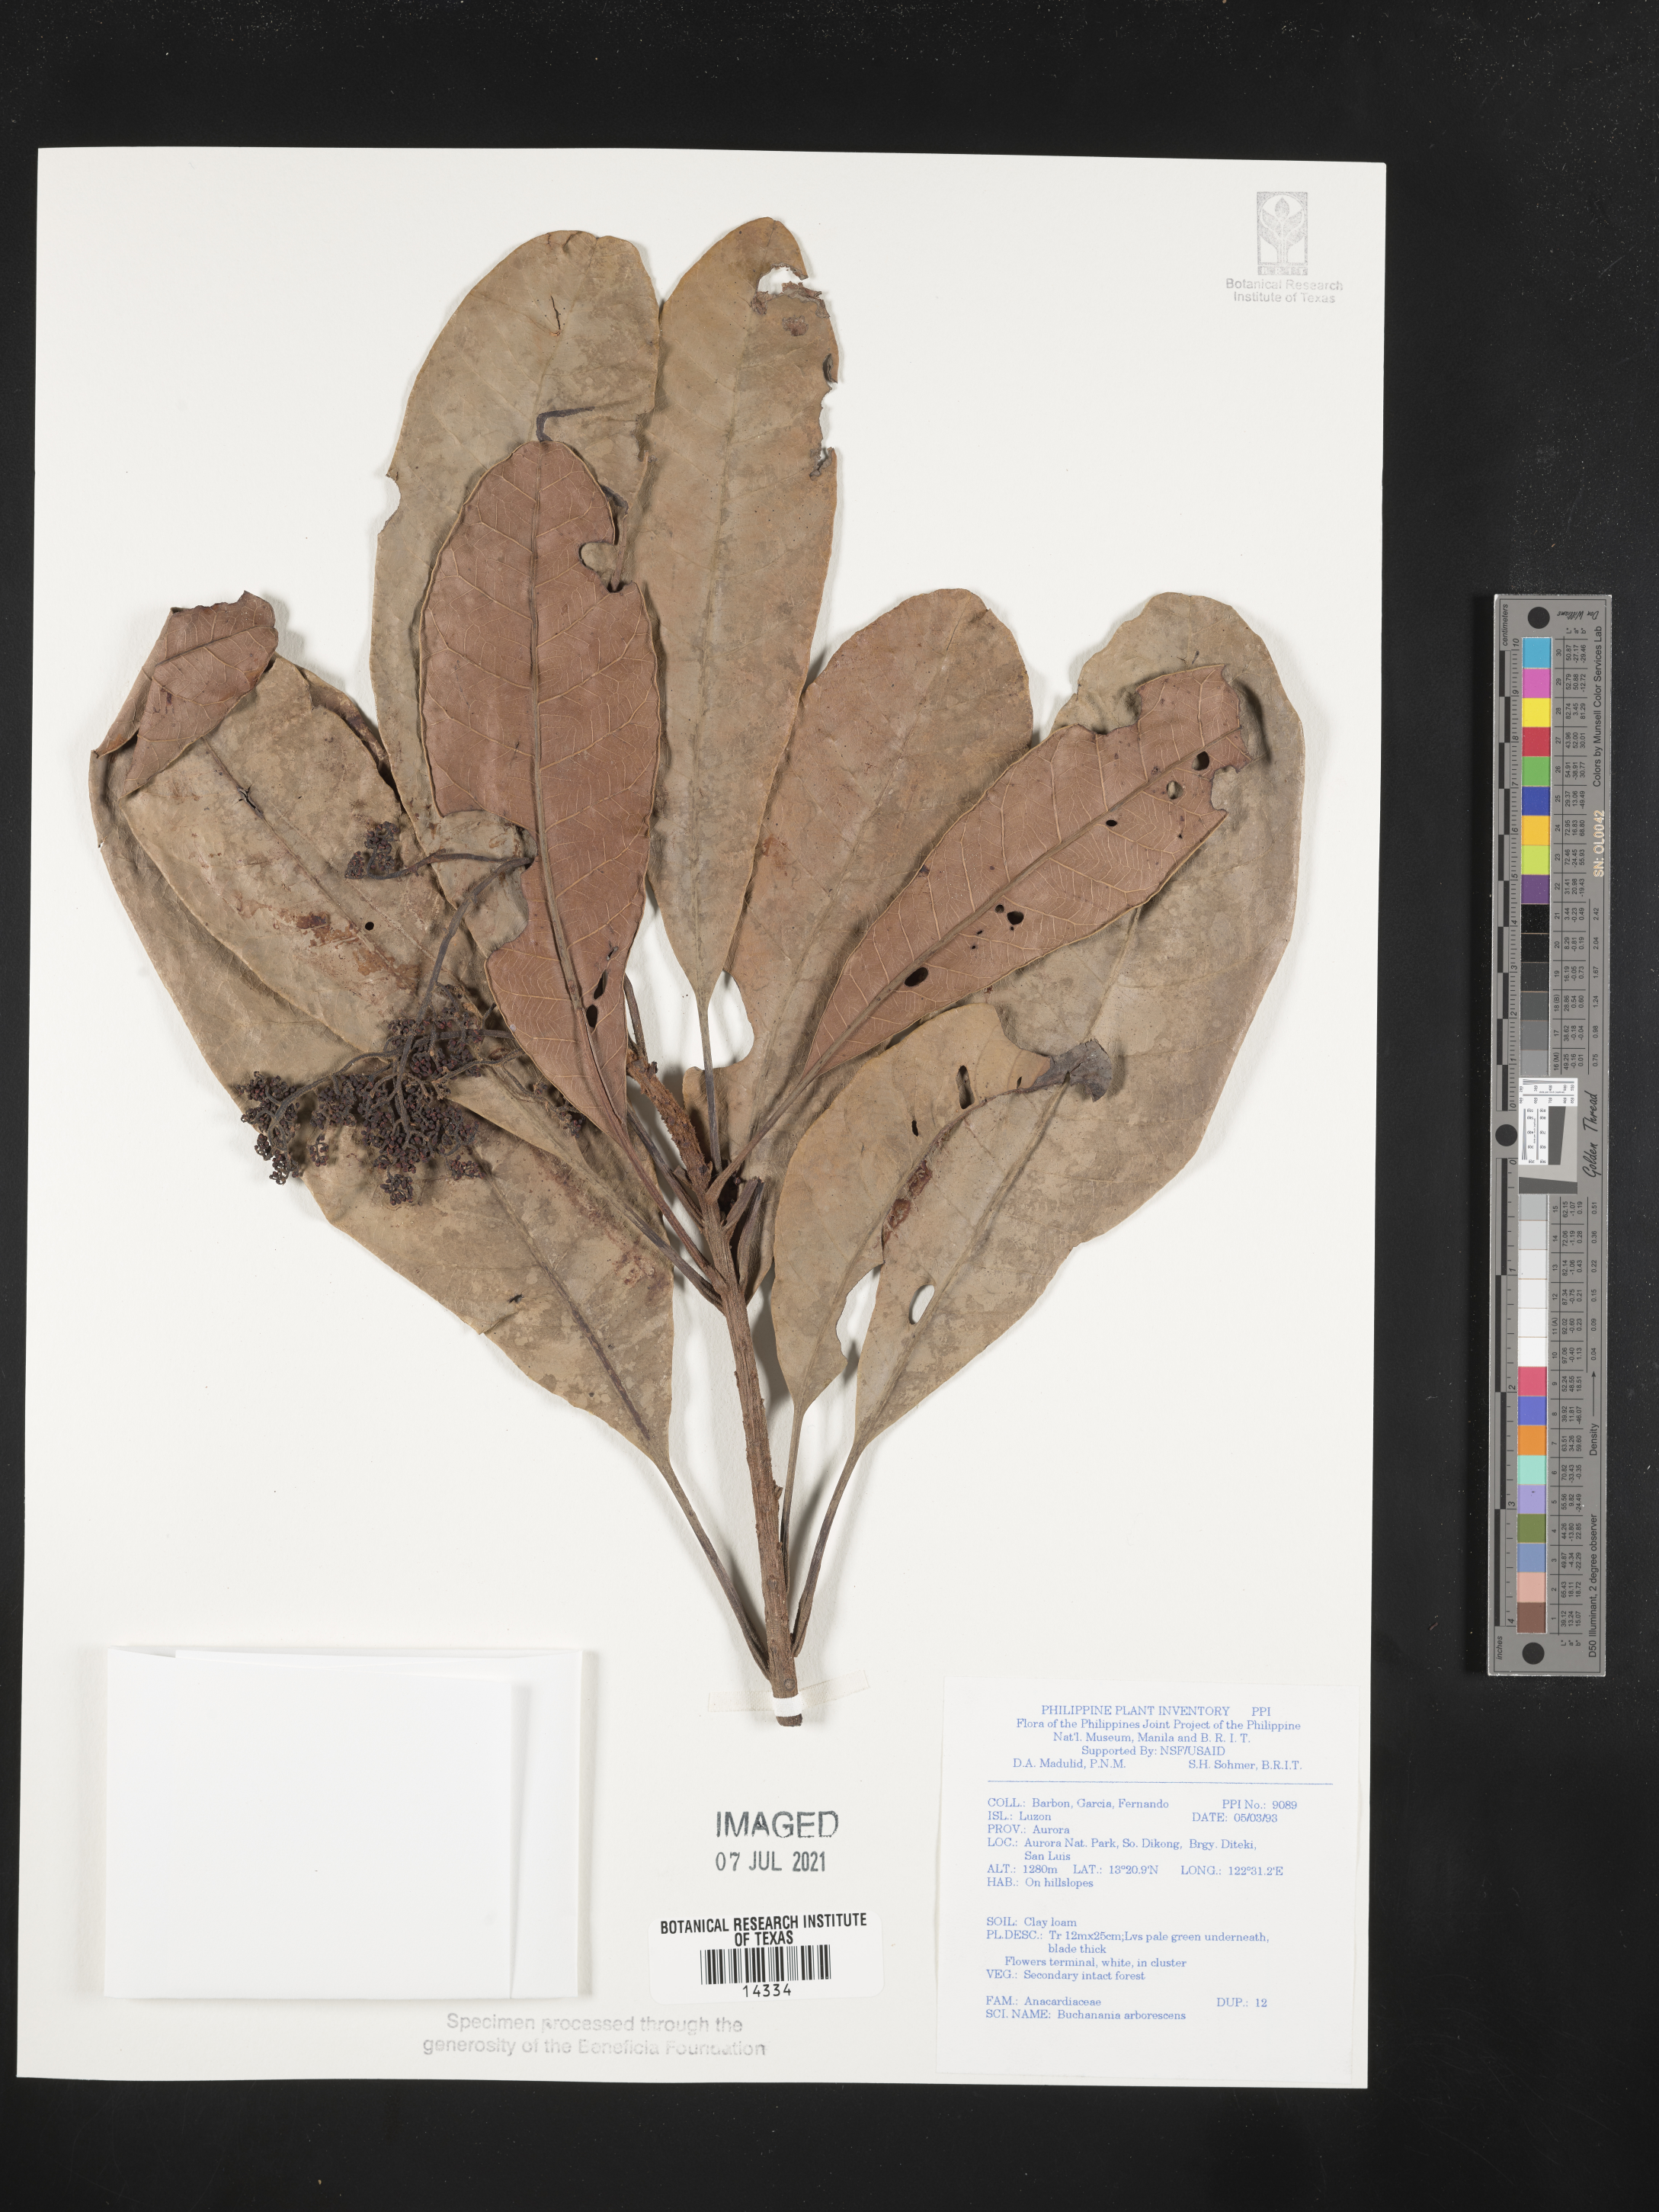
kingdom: Plantae
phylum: Tracheophyta
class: Magnoliopsida
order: Sapindales
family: Anacardiaceae
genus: Buchanania
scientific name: Buchanania arborescens
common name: Sparrow’s mango
